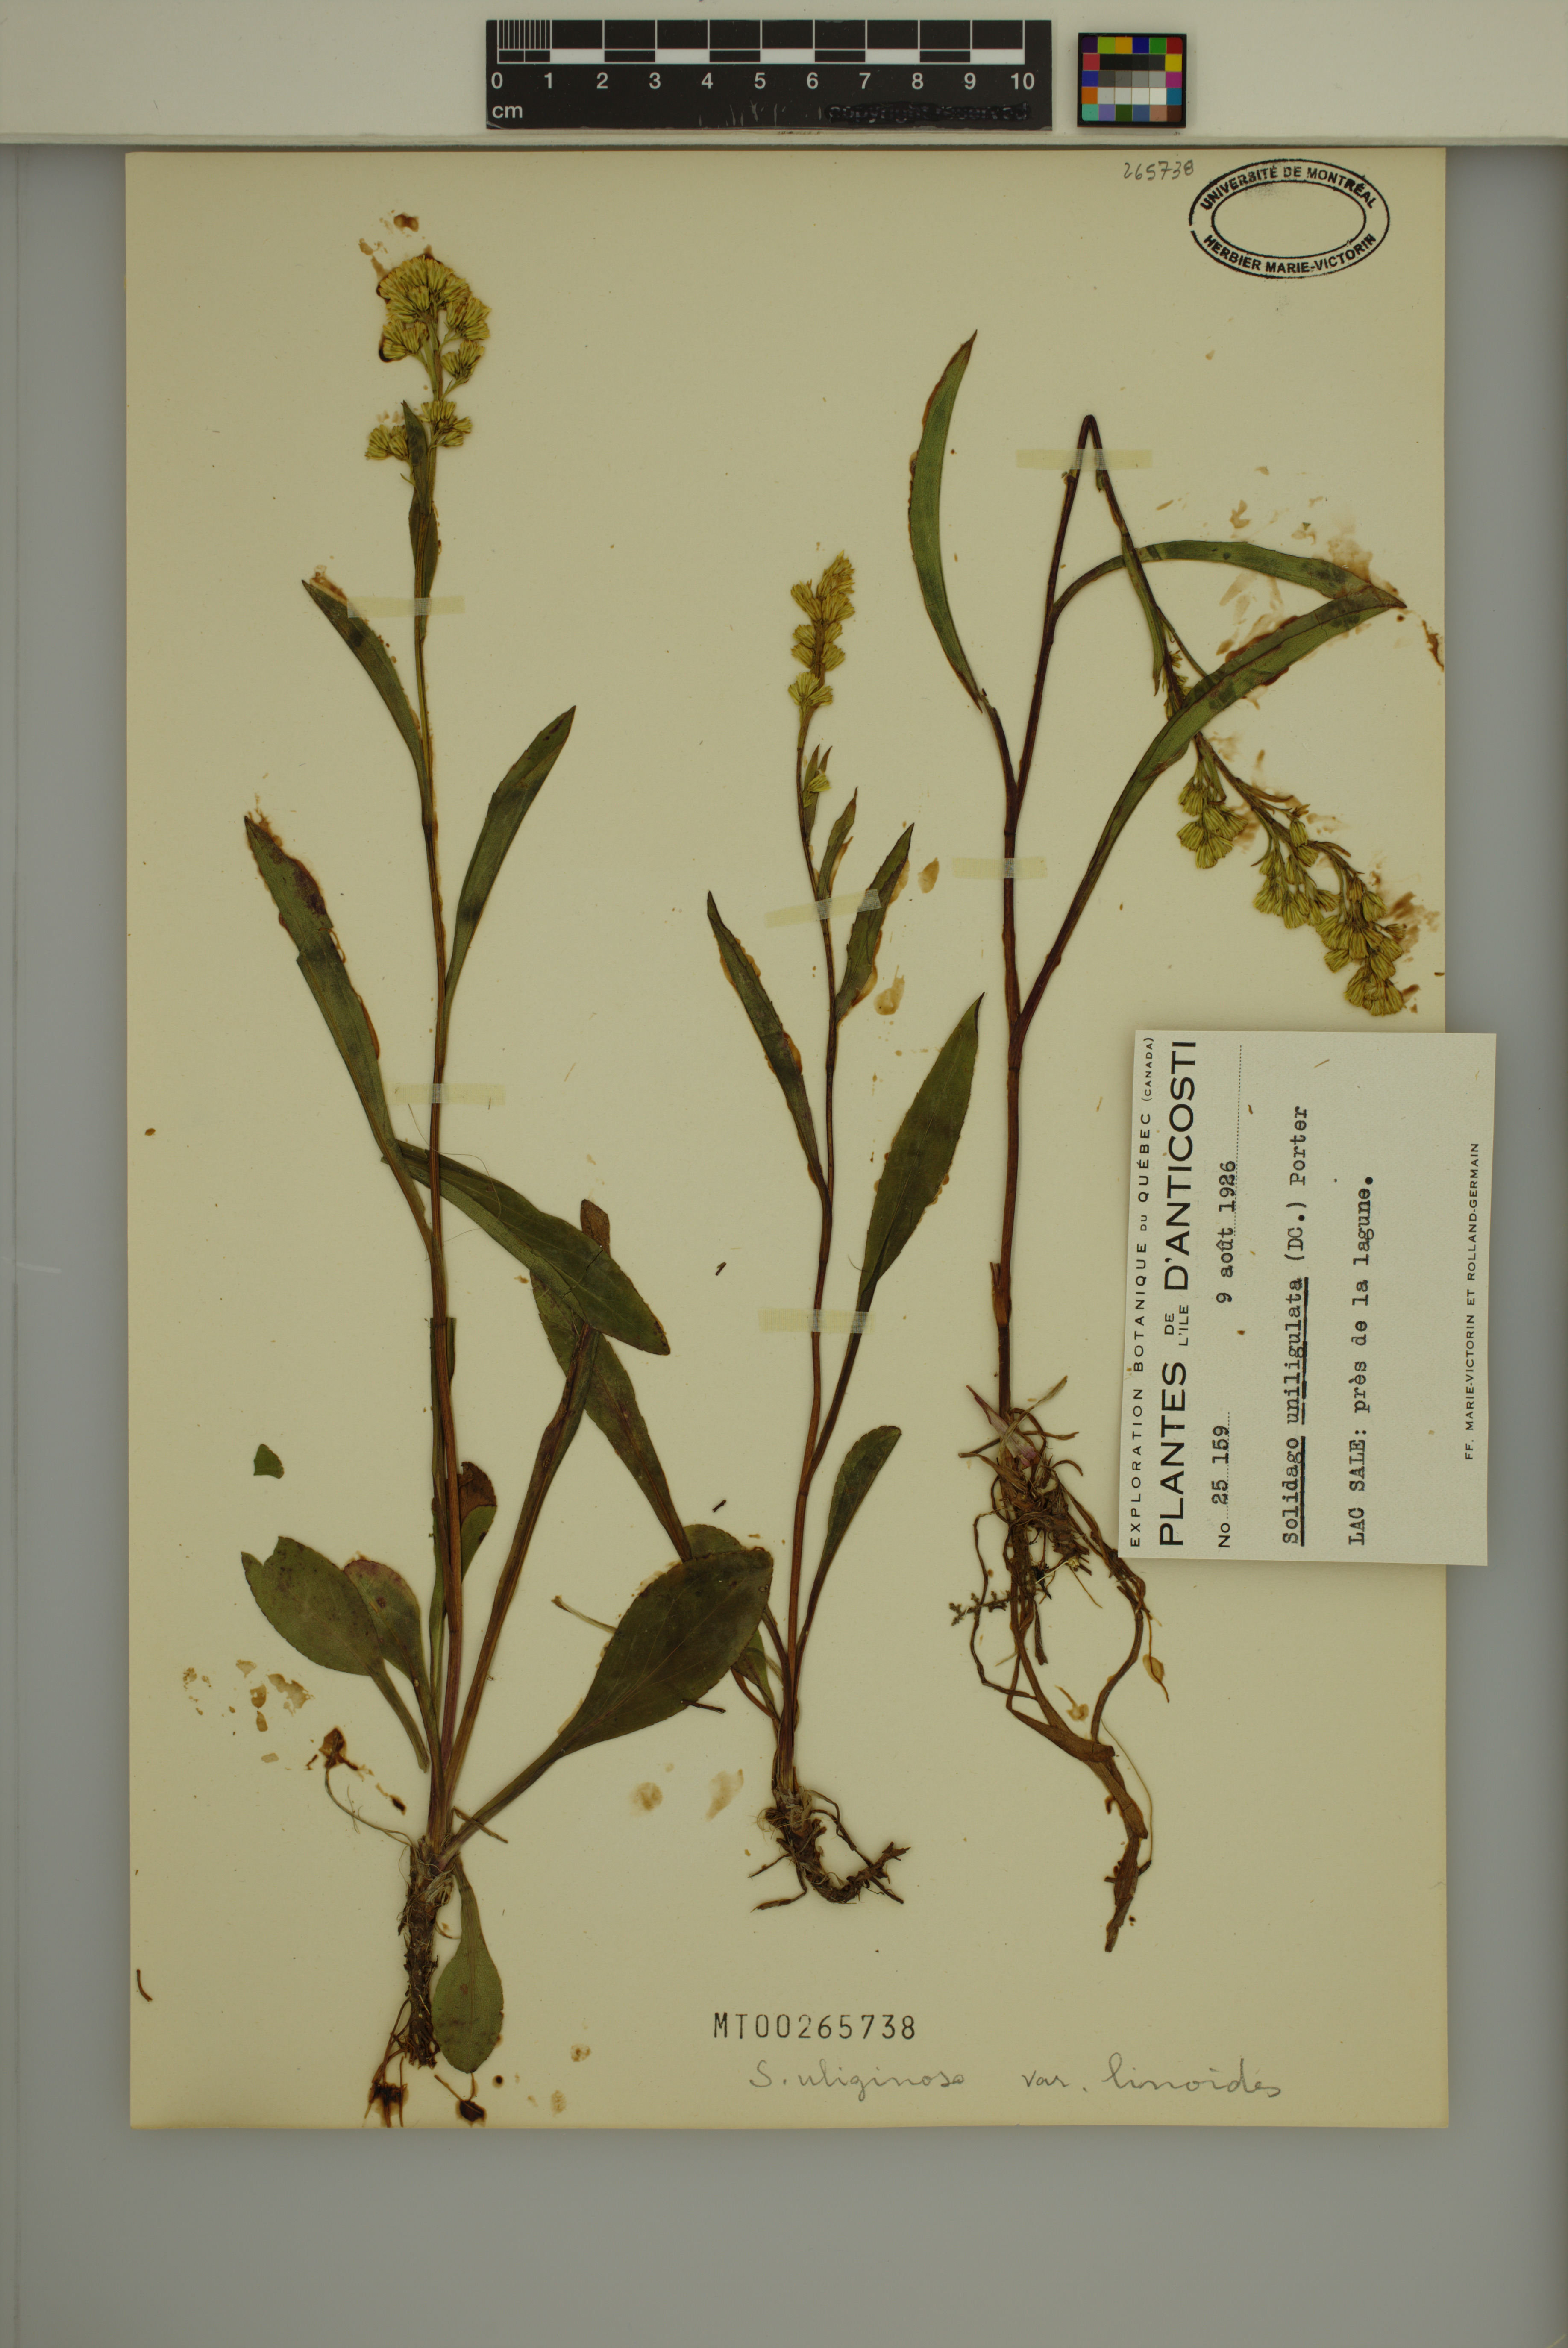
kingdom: Plantae
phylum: Tracheophyta
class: Magnoliopsida
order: Asterales
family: Asteraceae
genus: Solidago
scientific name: Solidago uliginosa
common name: Bog goldenrod
